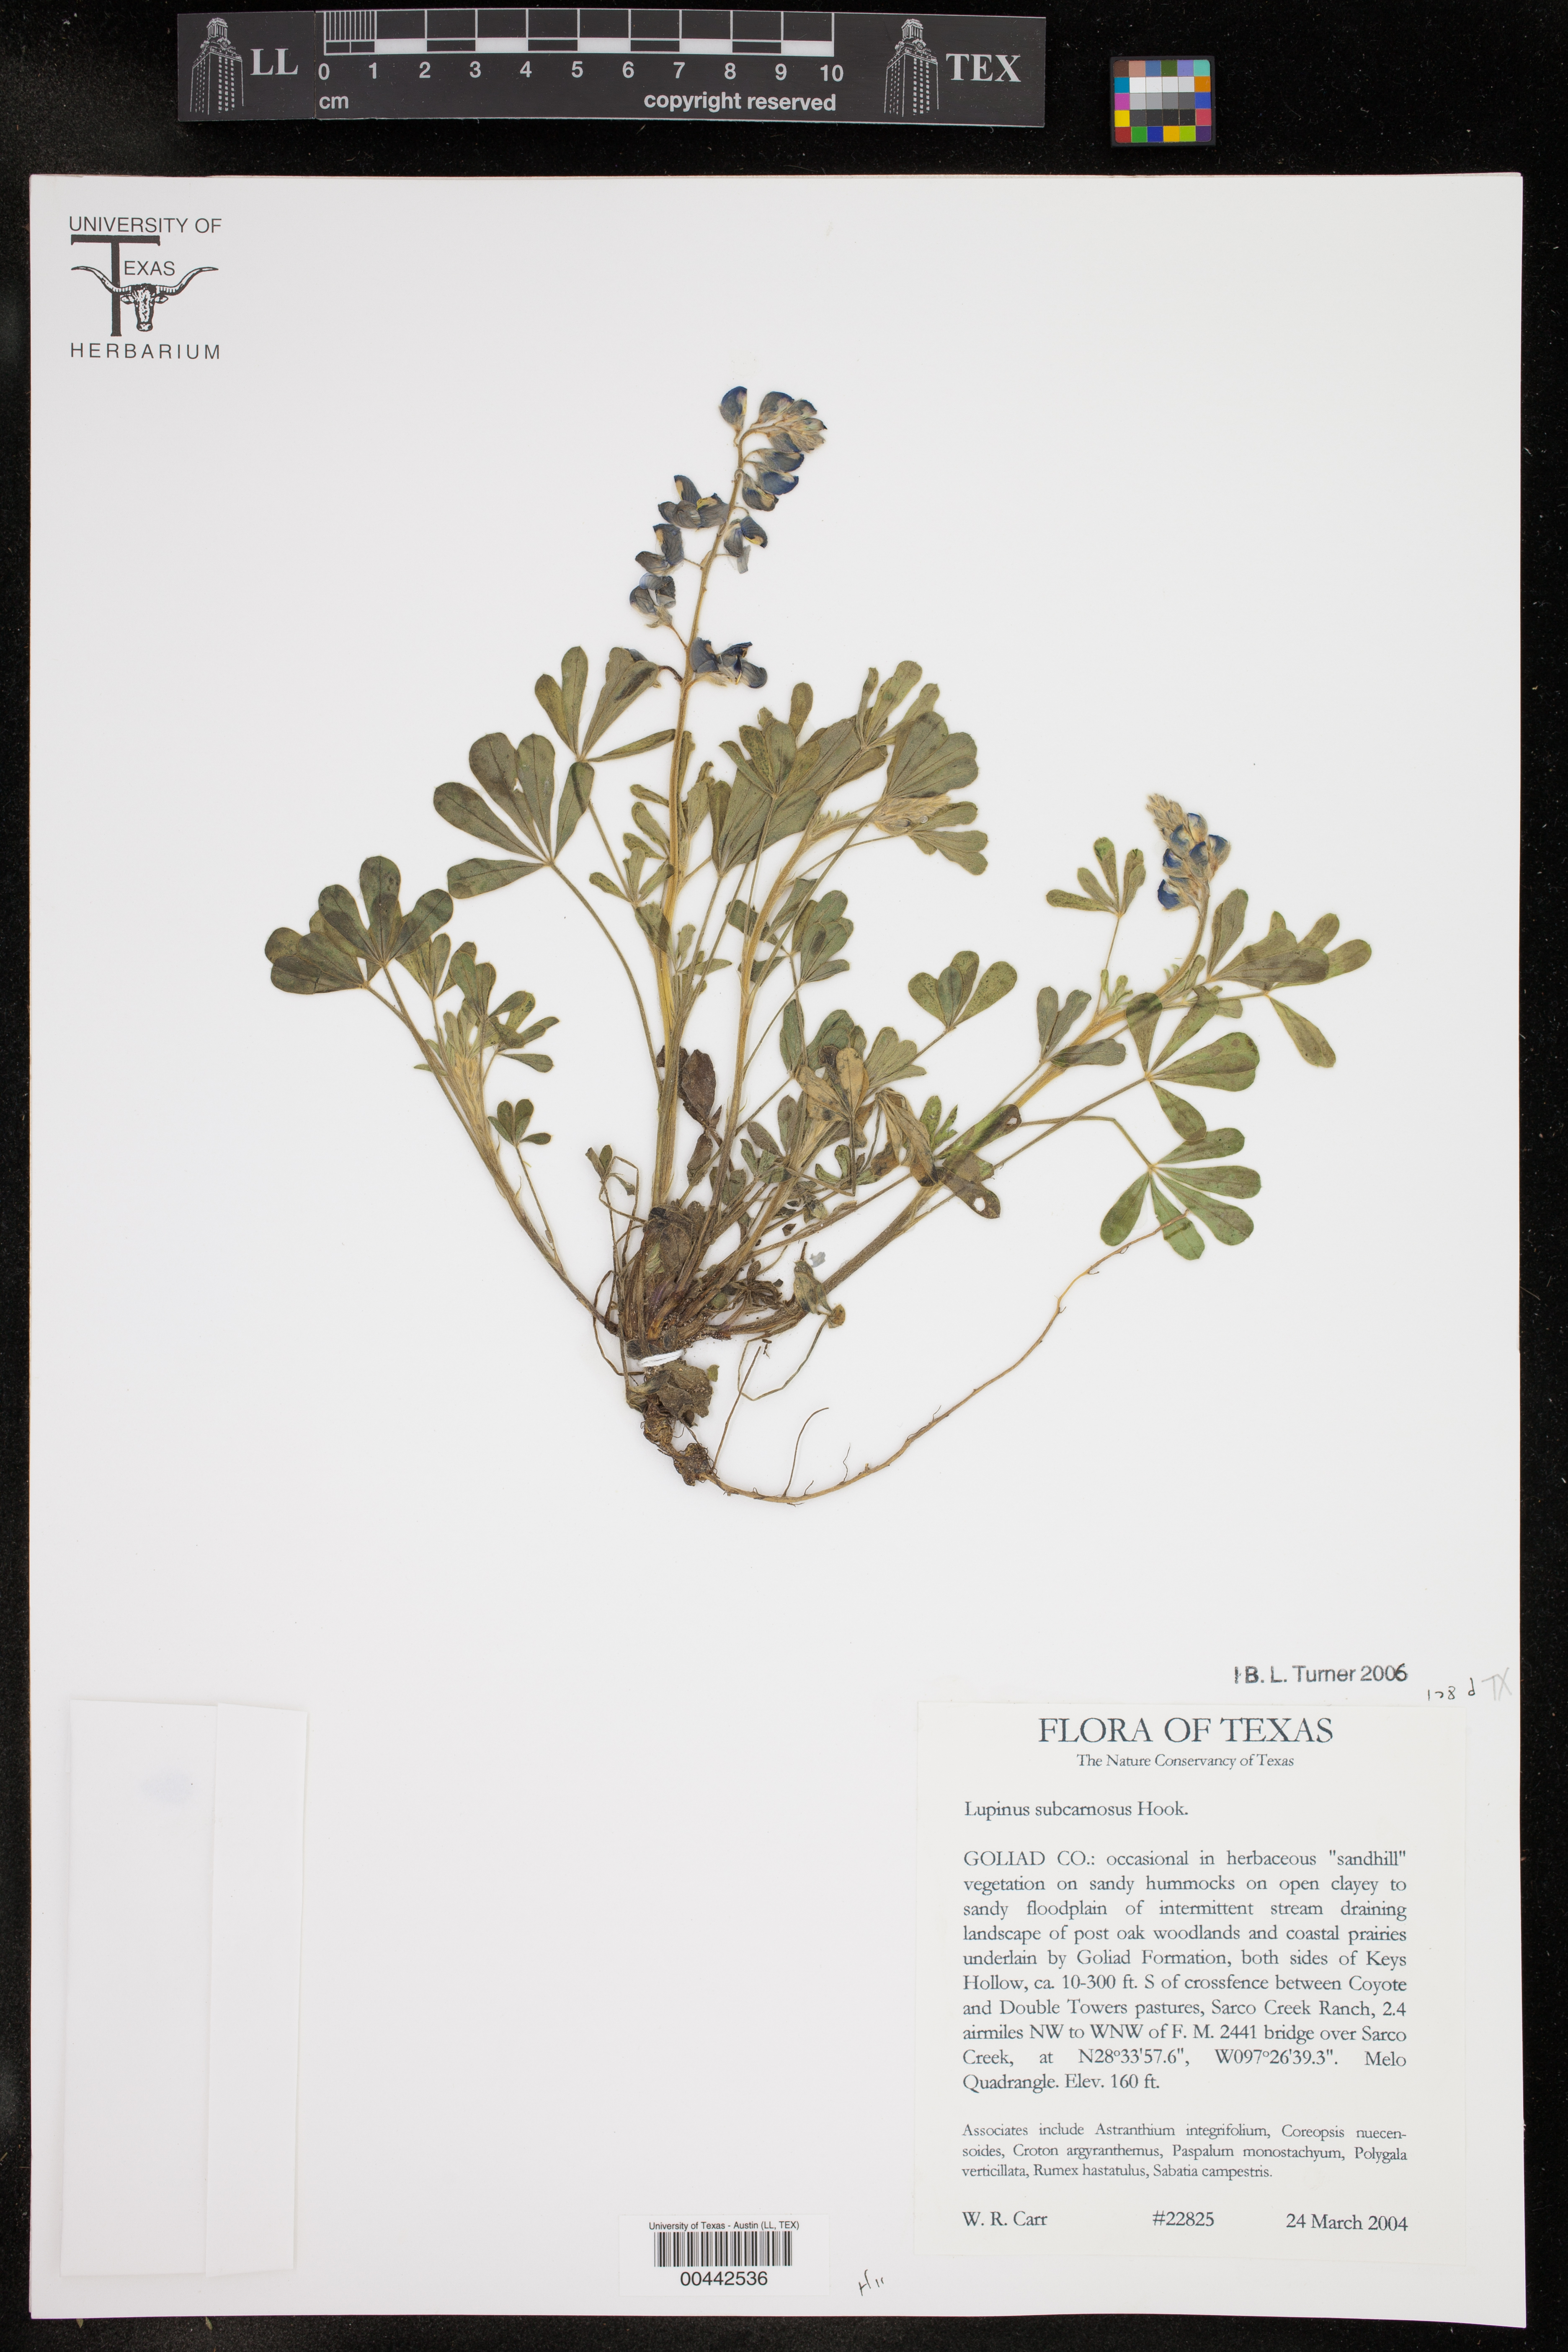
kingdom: Plantae
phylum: Tracheophyta
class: Magnoliopsida
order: Fabales
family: Fabaceae
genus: Lupinus
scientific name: Lupinus subcarnosus
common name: Texas bluebonnet
